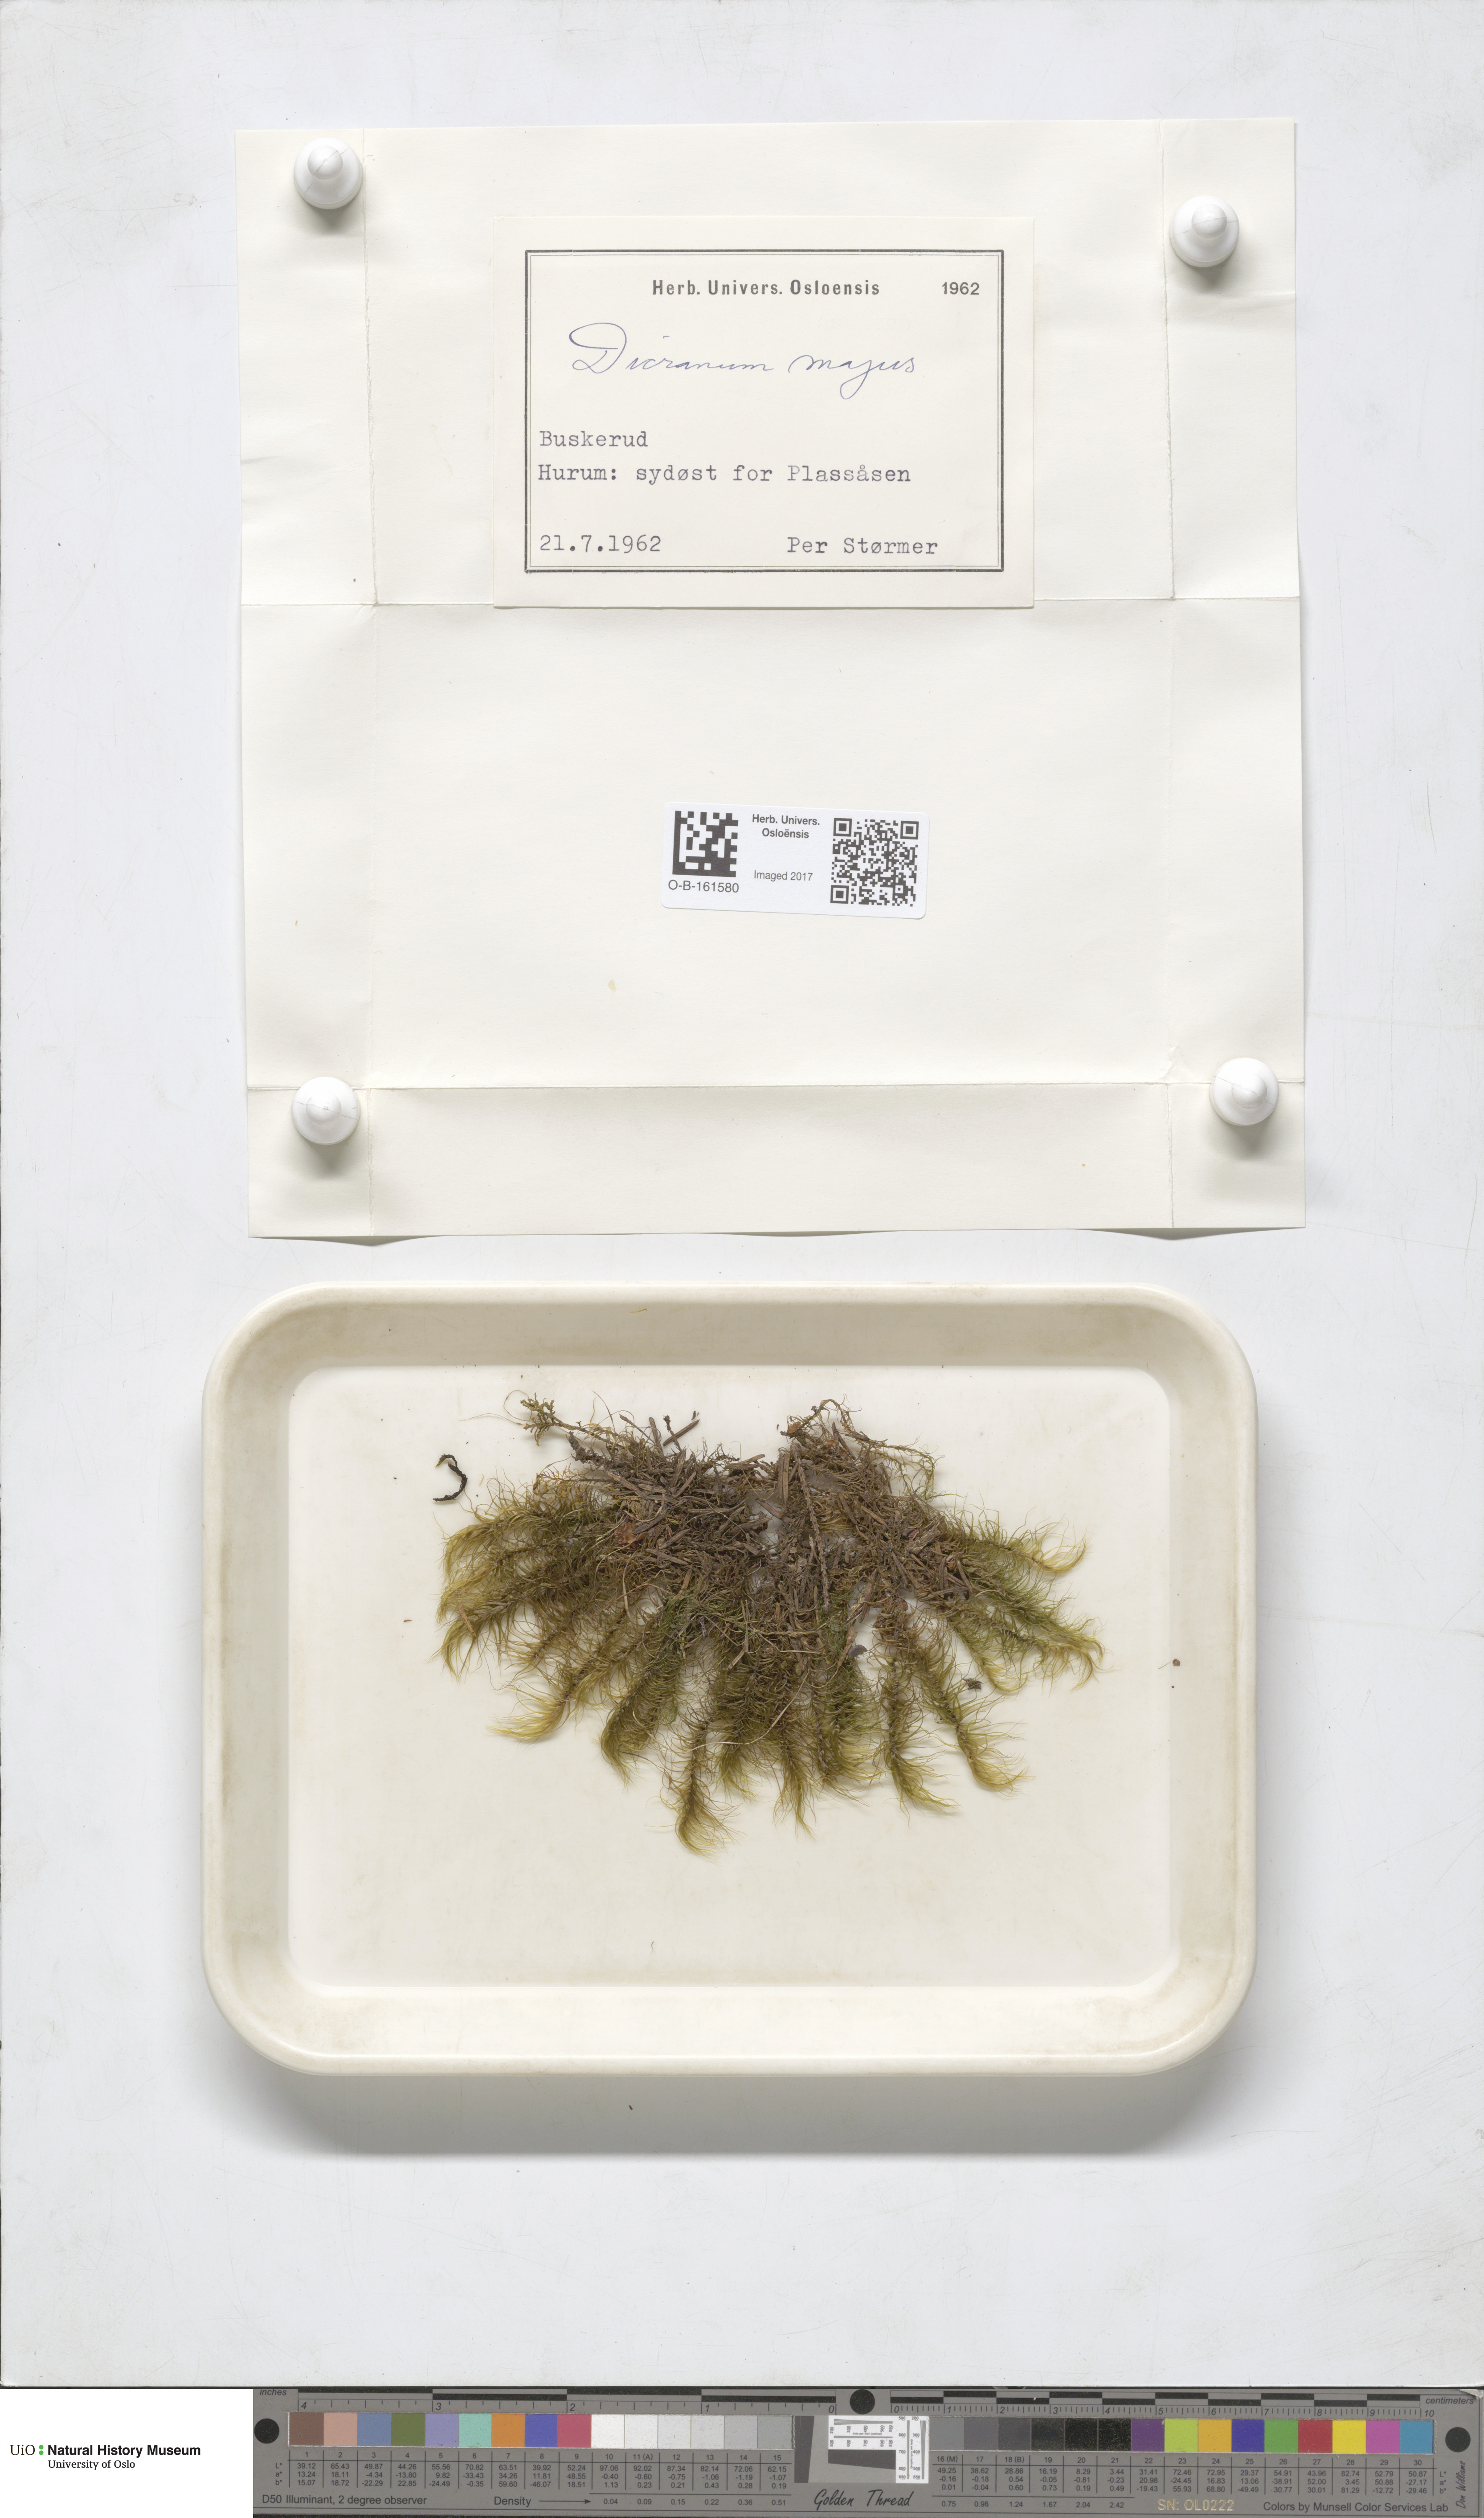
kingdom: Plantae
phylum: Bryophyta
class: Bryopsida
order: Dicranales
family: Dicranaceae
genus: Dicranum
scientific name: Dicranum majus
